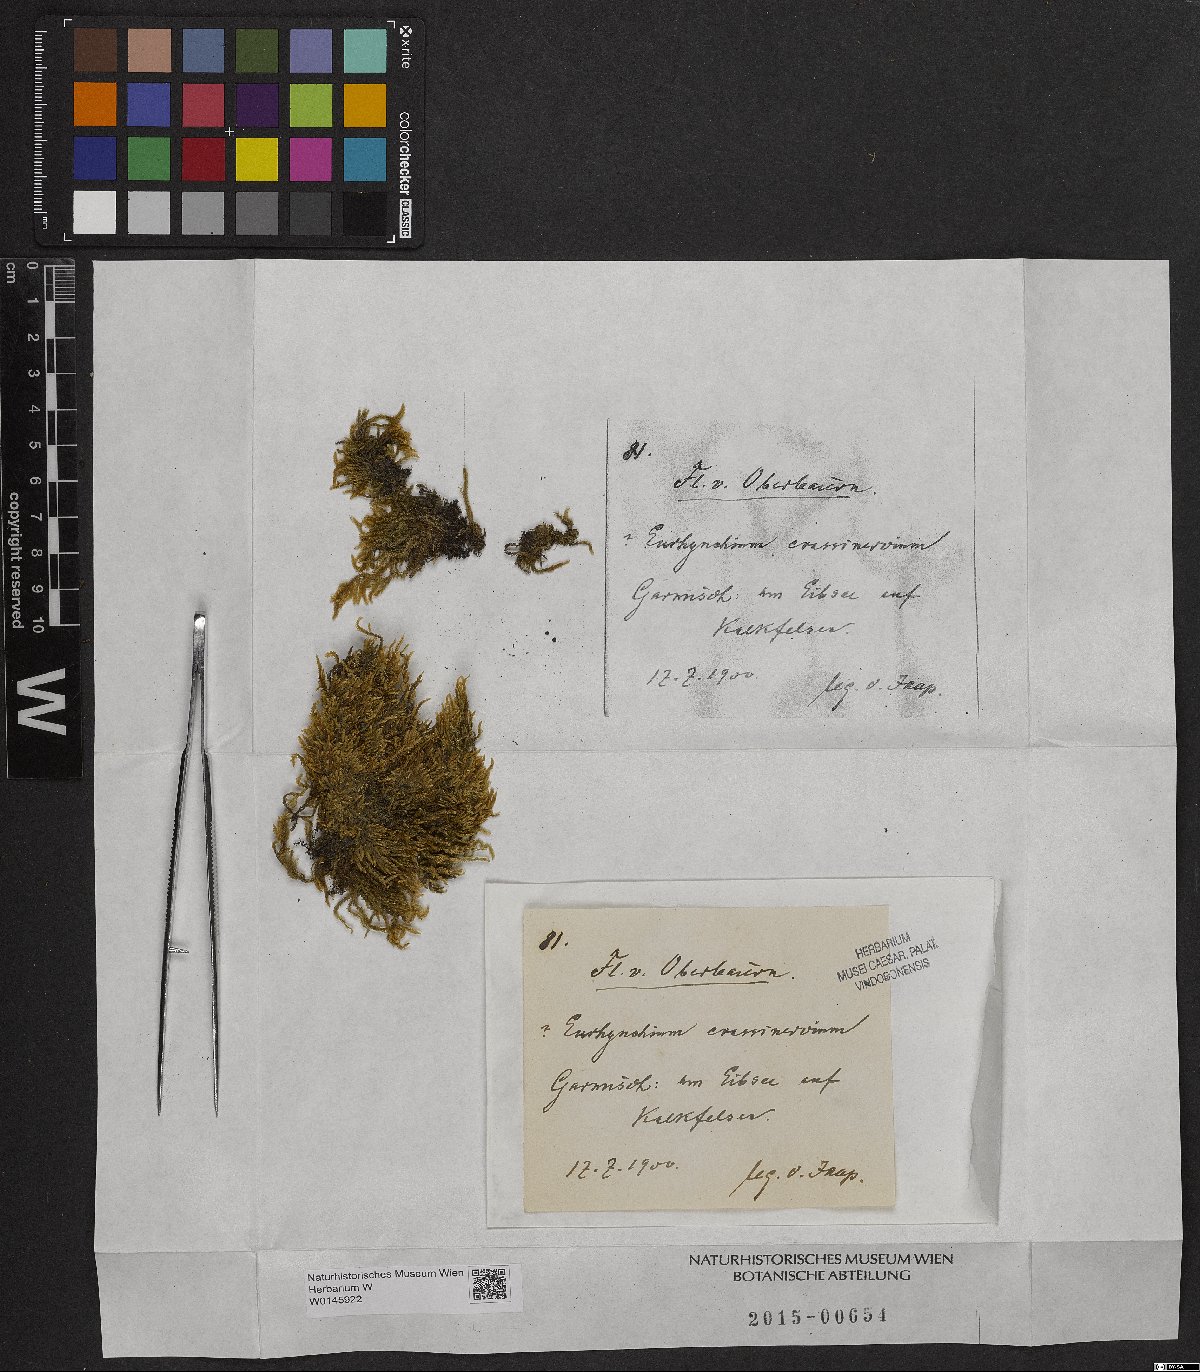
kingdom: Plantae
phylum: Bryophyta
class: Bryopsida
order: Hypnales
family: Brachytheciaceae
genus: Cirriphyllum
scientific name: Cirriphyllum crassinervium
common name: Beech feather-moss
